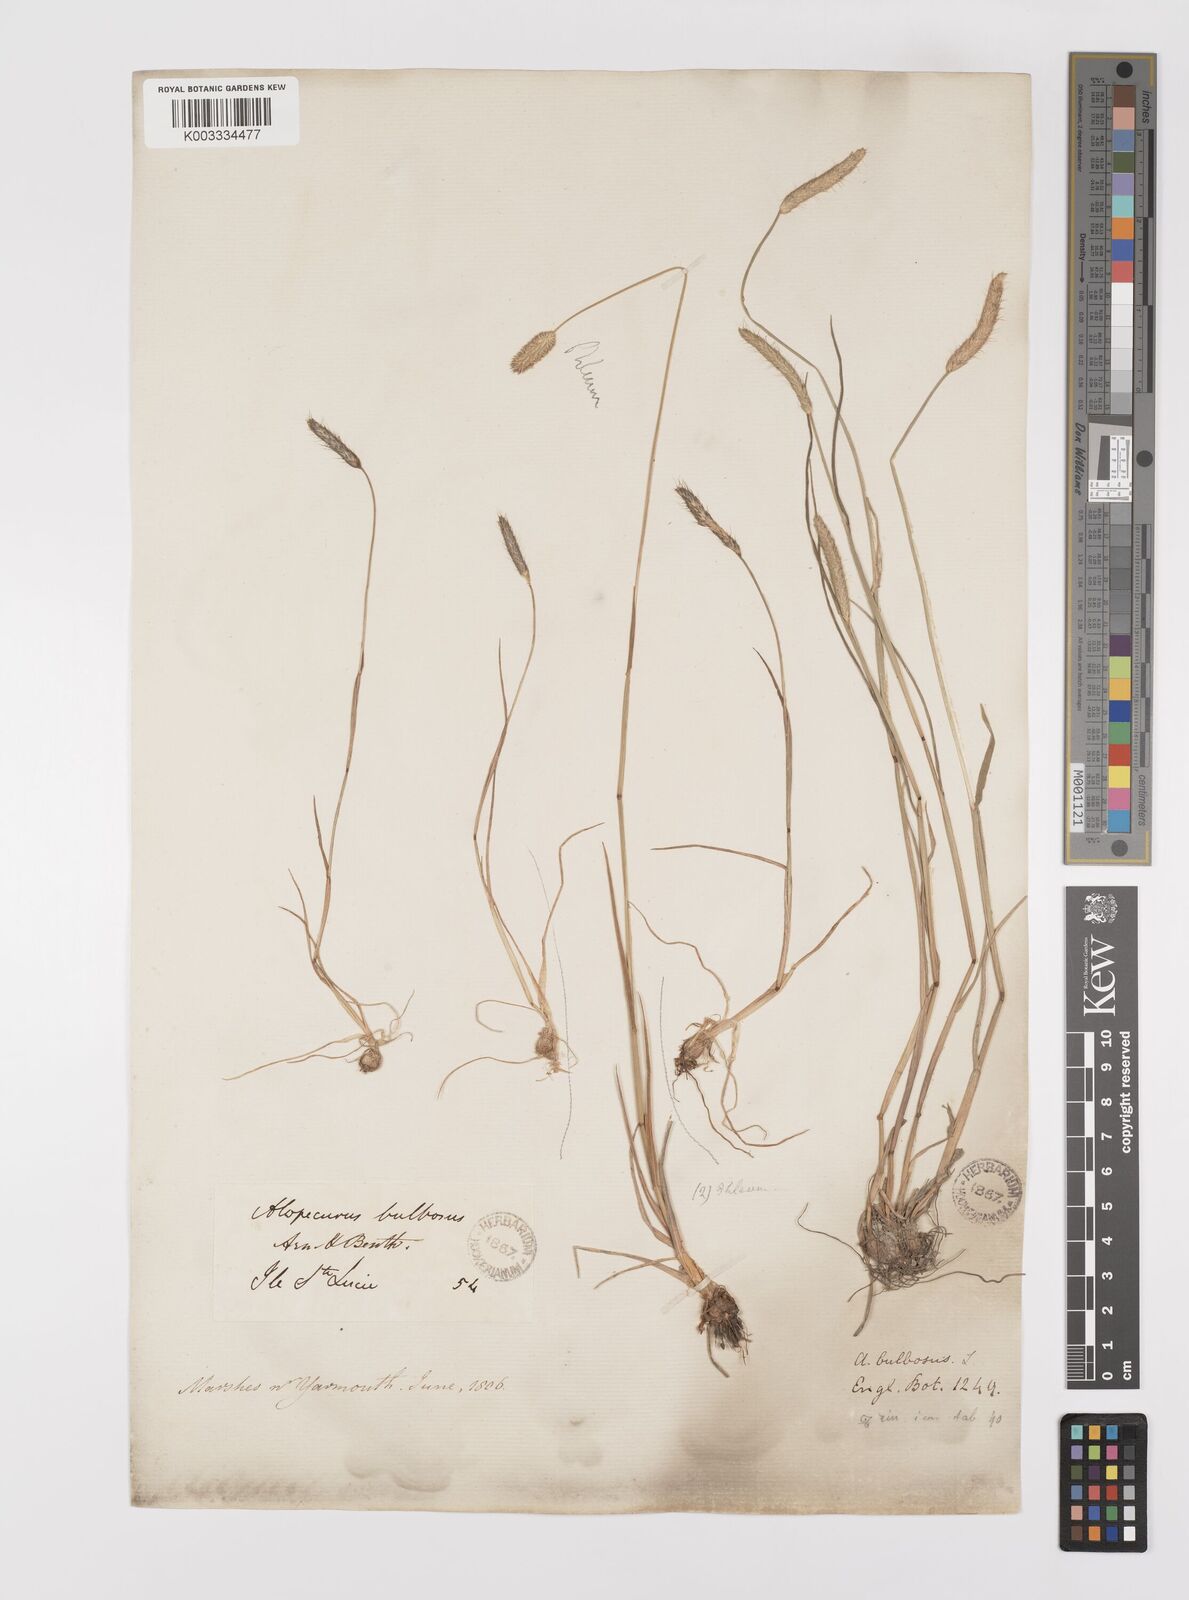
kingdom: Plantae
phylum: Tracheophyta
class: Liliopsida
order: Poales
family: Poaceae
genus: Alopecurus
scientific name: Alopecurus bulbosus
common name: Bulbous foxtail
